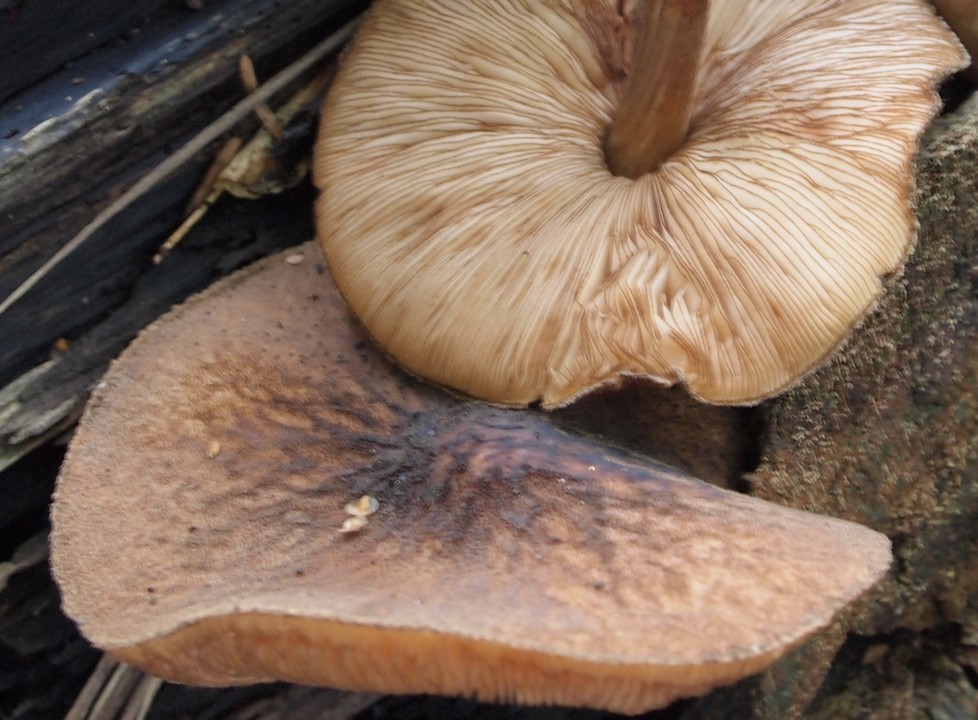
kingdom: Fungi
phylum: Basidiomycota
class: Agaricomycetes
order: Agaricales
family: Pluteaceae
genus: Pluteus
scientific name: Pluteus umbrosus
